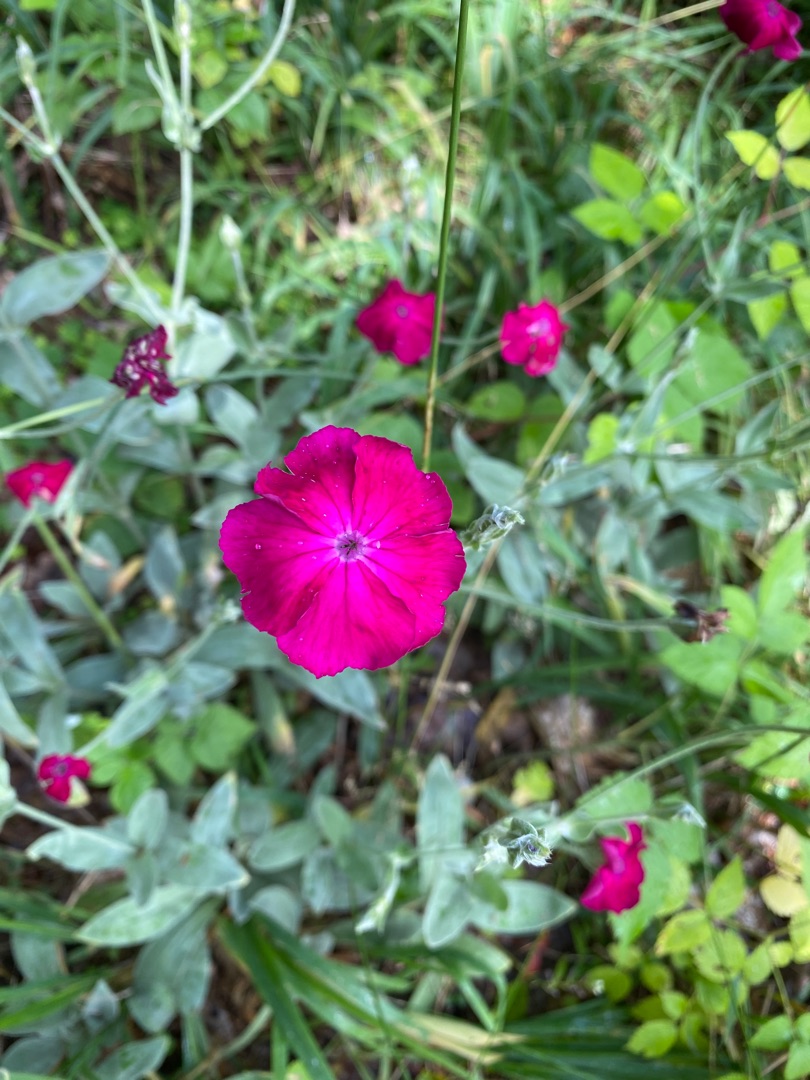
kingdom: Plantae
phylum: Tracheophyta
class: Magnoliopsida
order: Caryophyllales
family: Caryophyllaceae
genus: Silene
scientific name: Silene coronaria
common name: Fiksernellike
